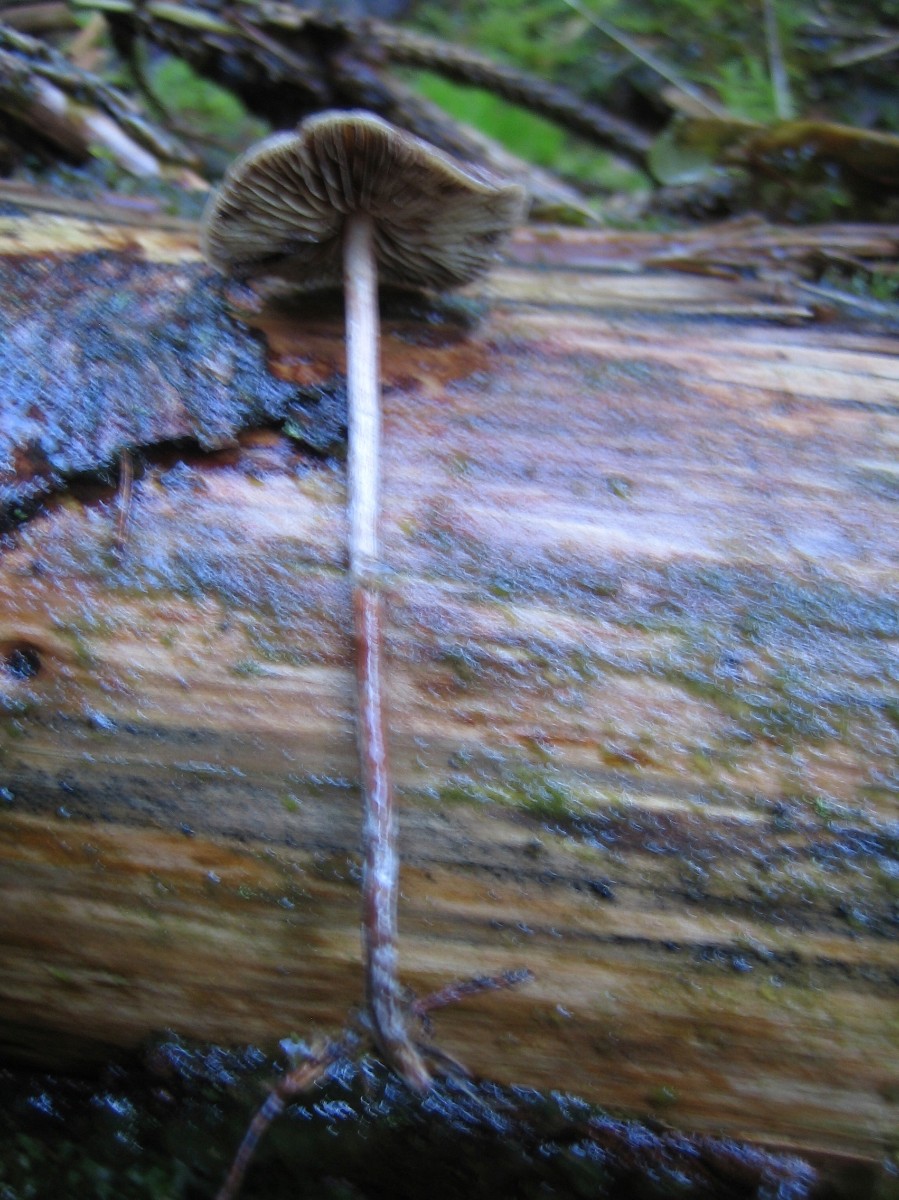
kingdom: Fungi
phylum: Basidiomycota
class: Agaricomycetes
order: Agaricales
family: Strophariaceae
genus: Hypholoma
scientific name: Hypholoma marginatum
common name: enlig svovlhat
